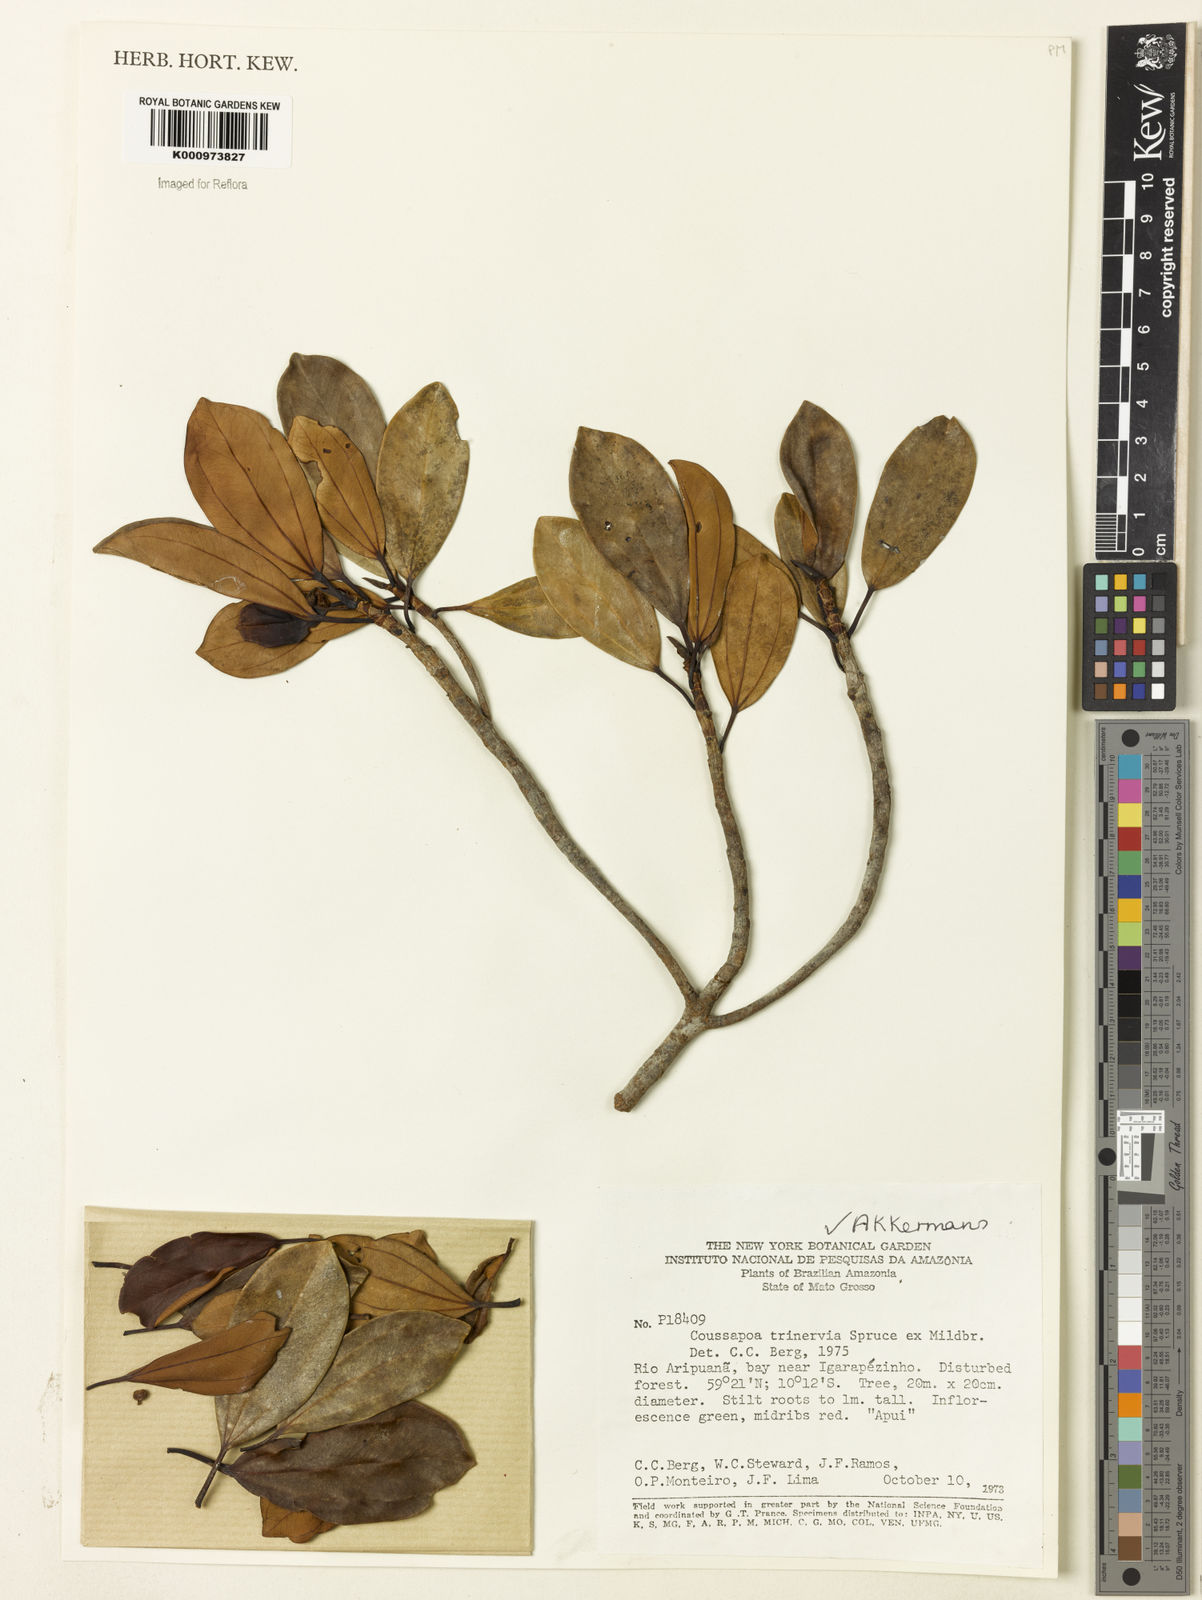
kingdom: Plantae
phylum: Tracheophyta
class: Magnoliopsida
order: Rosales
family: Urticaceae
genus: Coussapoa
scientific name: Coussapoa trinervia
